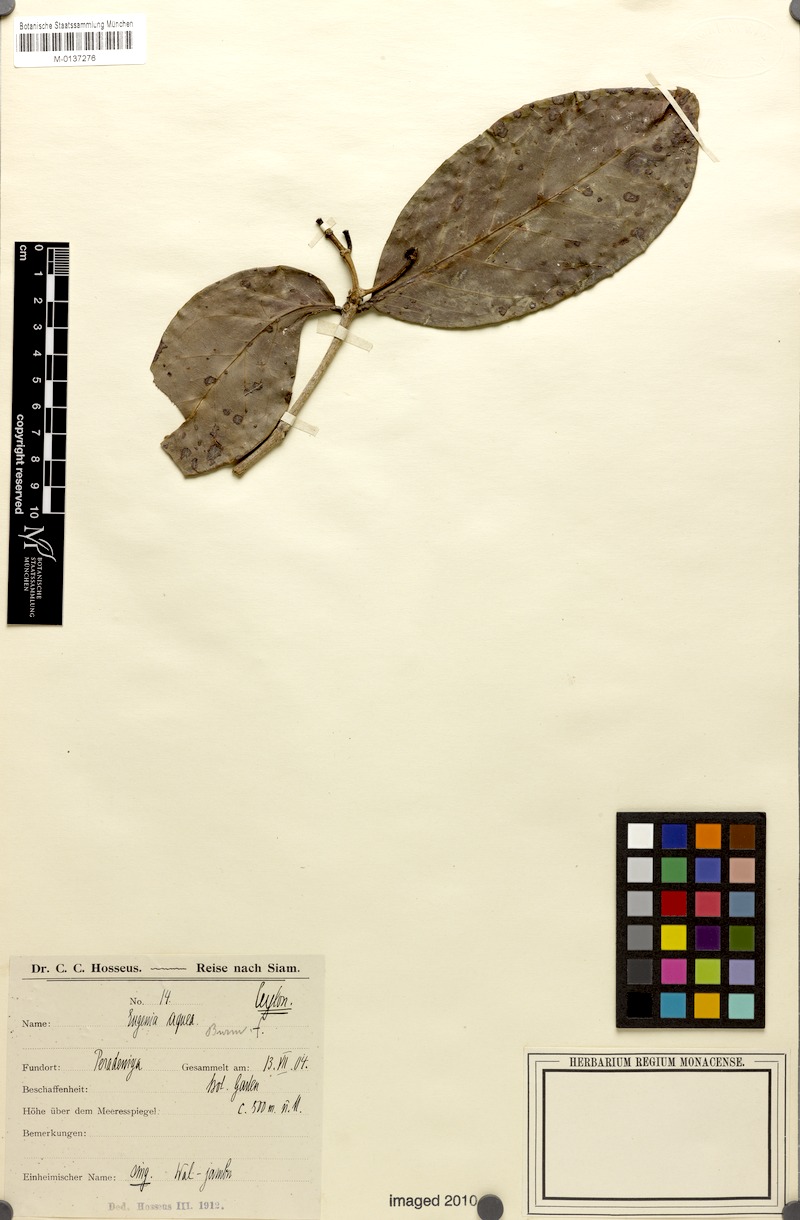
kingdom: Plantae
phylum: Tracheophyta
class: Magnoliopsida
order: Myrtales
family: Myrtaceae
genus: Syzygium
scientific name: Syzygium aqueum
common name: Water-apple
